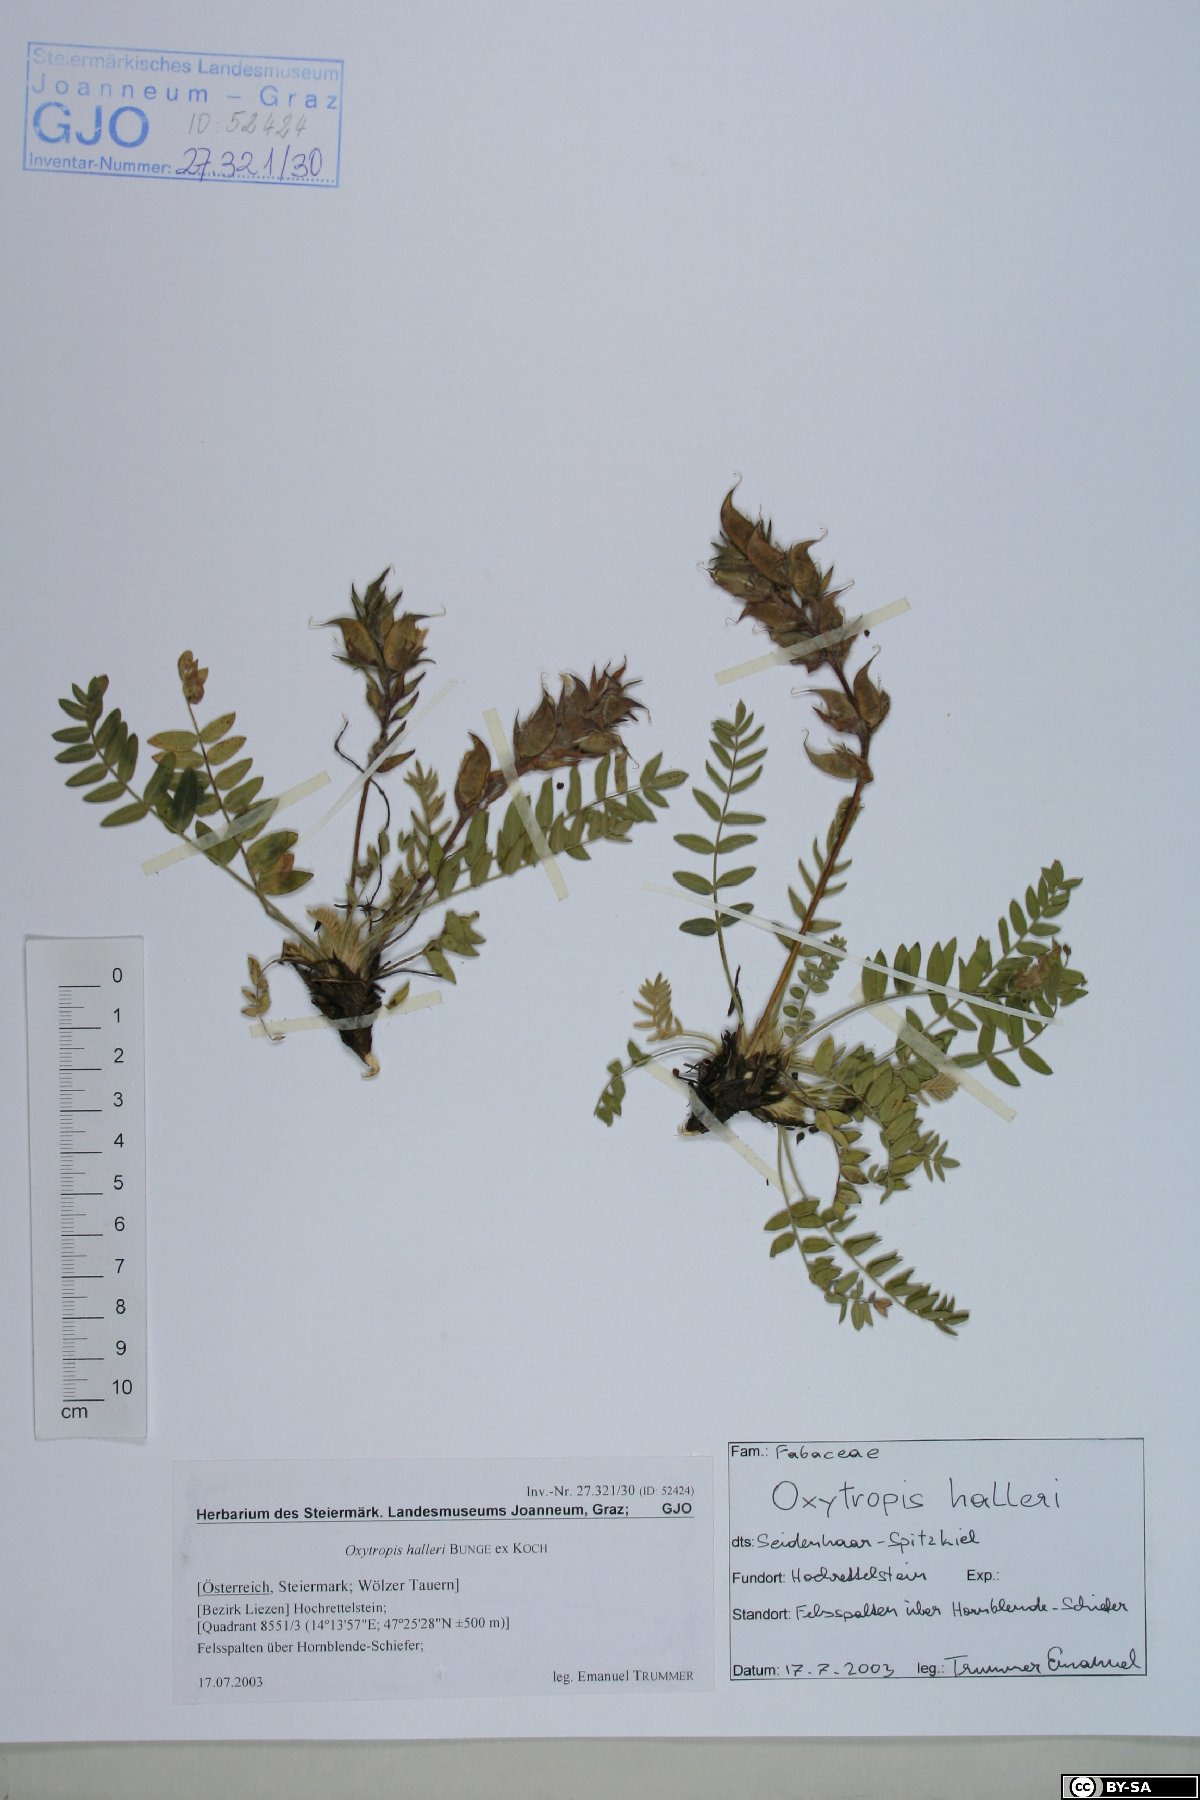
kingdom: Plantae
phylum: Tracheophyta
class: Magnoliopsida
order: Fabales
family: Fabaceae
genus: Oxytropis
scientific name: Oxytropis halleri
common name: Purple oxytropis
